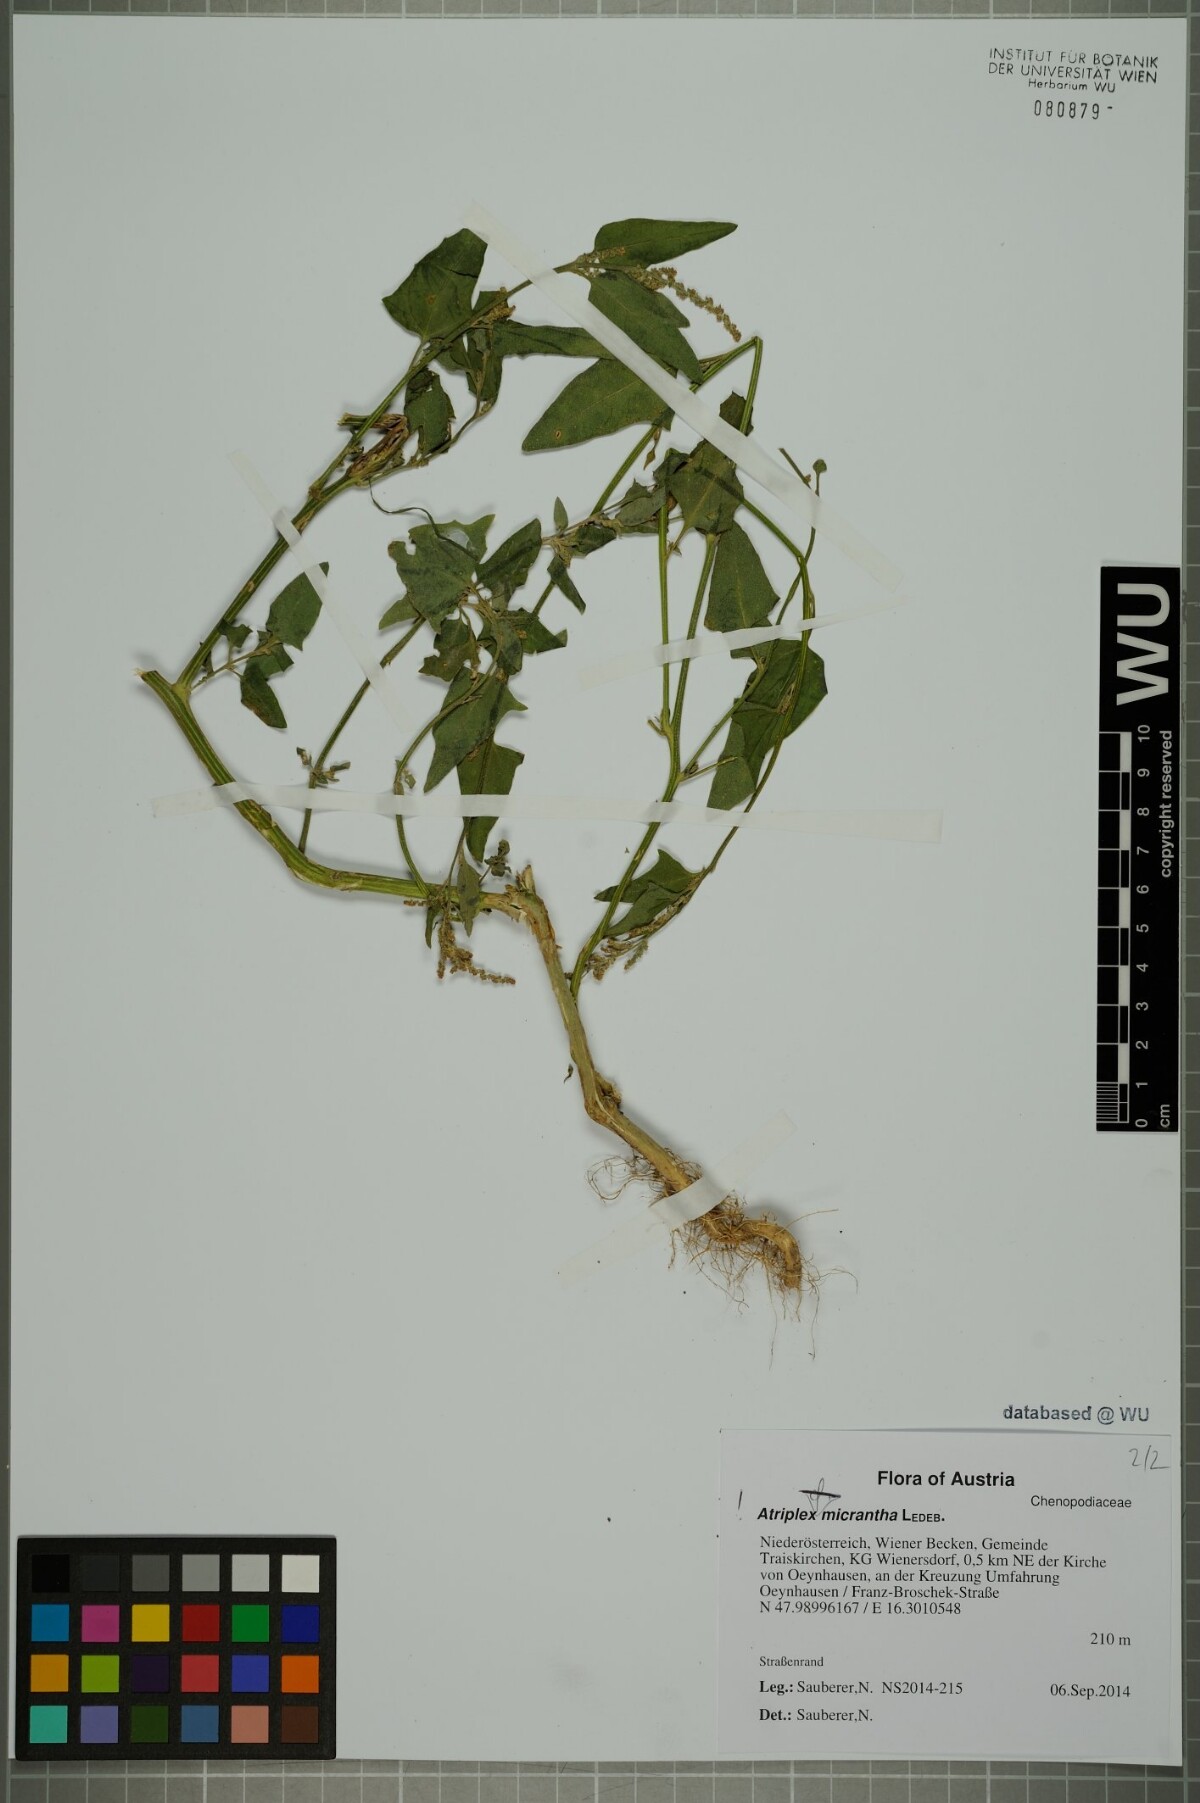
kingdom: Plantae
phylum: Tracheophyta
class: Magnoliopsida
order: Caryophyllales
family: Amaranthaceae
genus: Atriplex
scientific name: Atriplex micrantha
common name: Twoscale saltbush
